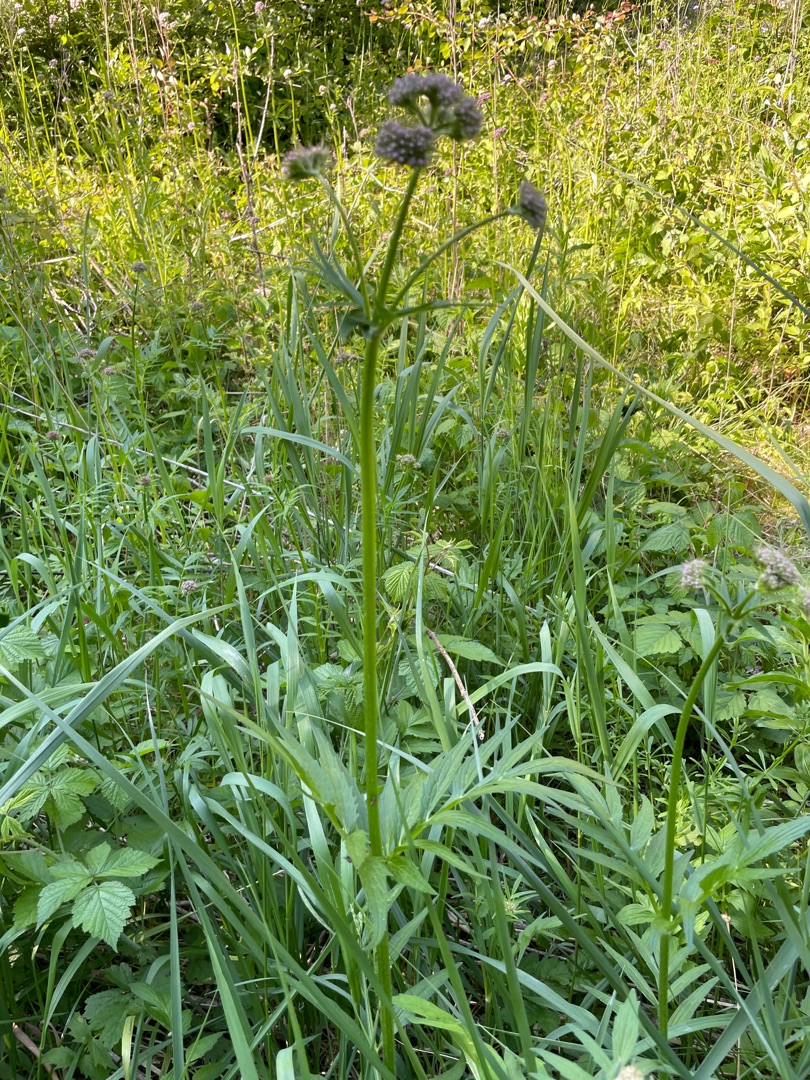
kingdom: Plantae
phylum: Tracheophyta
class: Magnoliopsida
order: Dipsacales
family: Caprifoliaceae
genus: Valeriana
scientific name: Valeriana sambucifolia
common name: Hyldebladet baldrian
